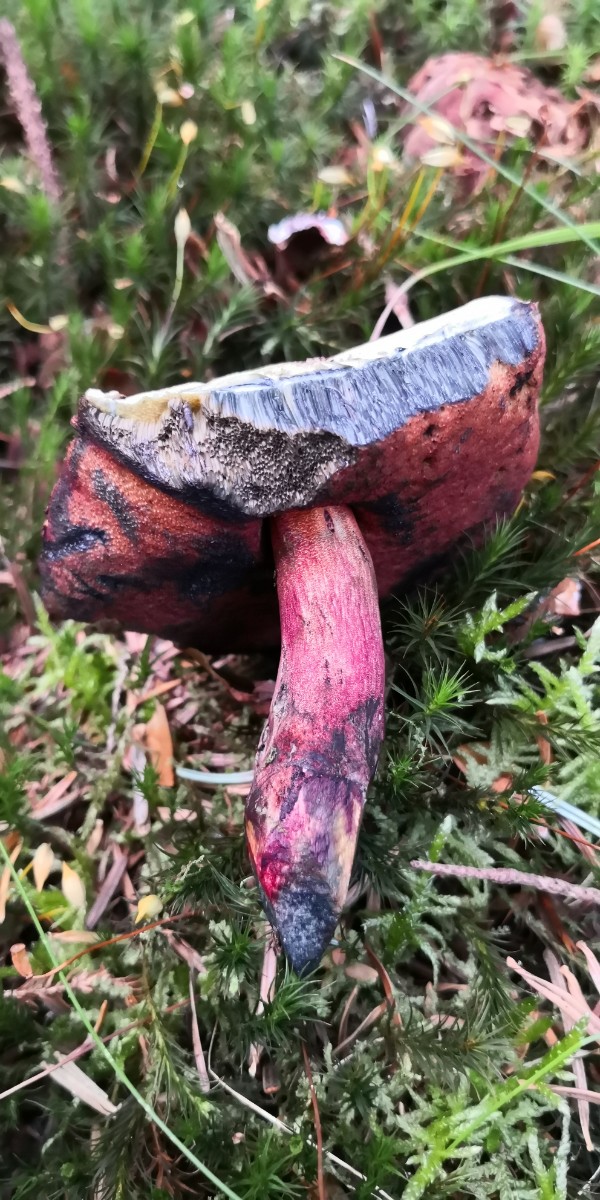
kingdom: Fungi
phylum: Basidiomycota
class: Agaricomycetes
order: Boletales
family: Boletaceae
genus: Neoboletus
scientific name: Neoboletus erythropus
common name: punktstokket indigorørhat
